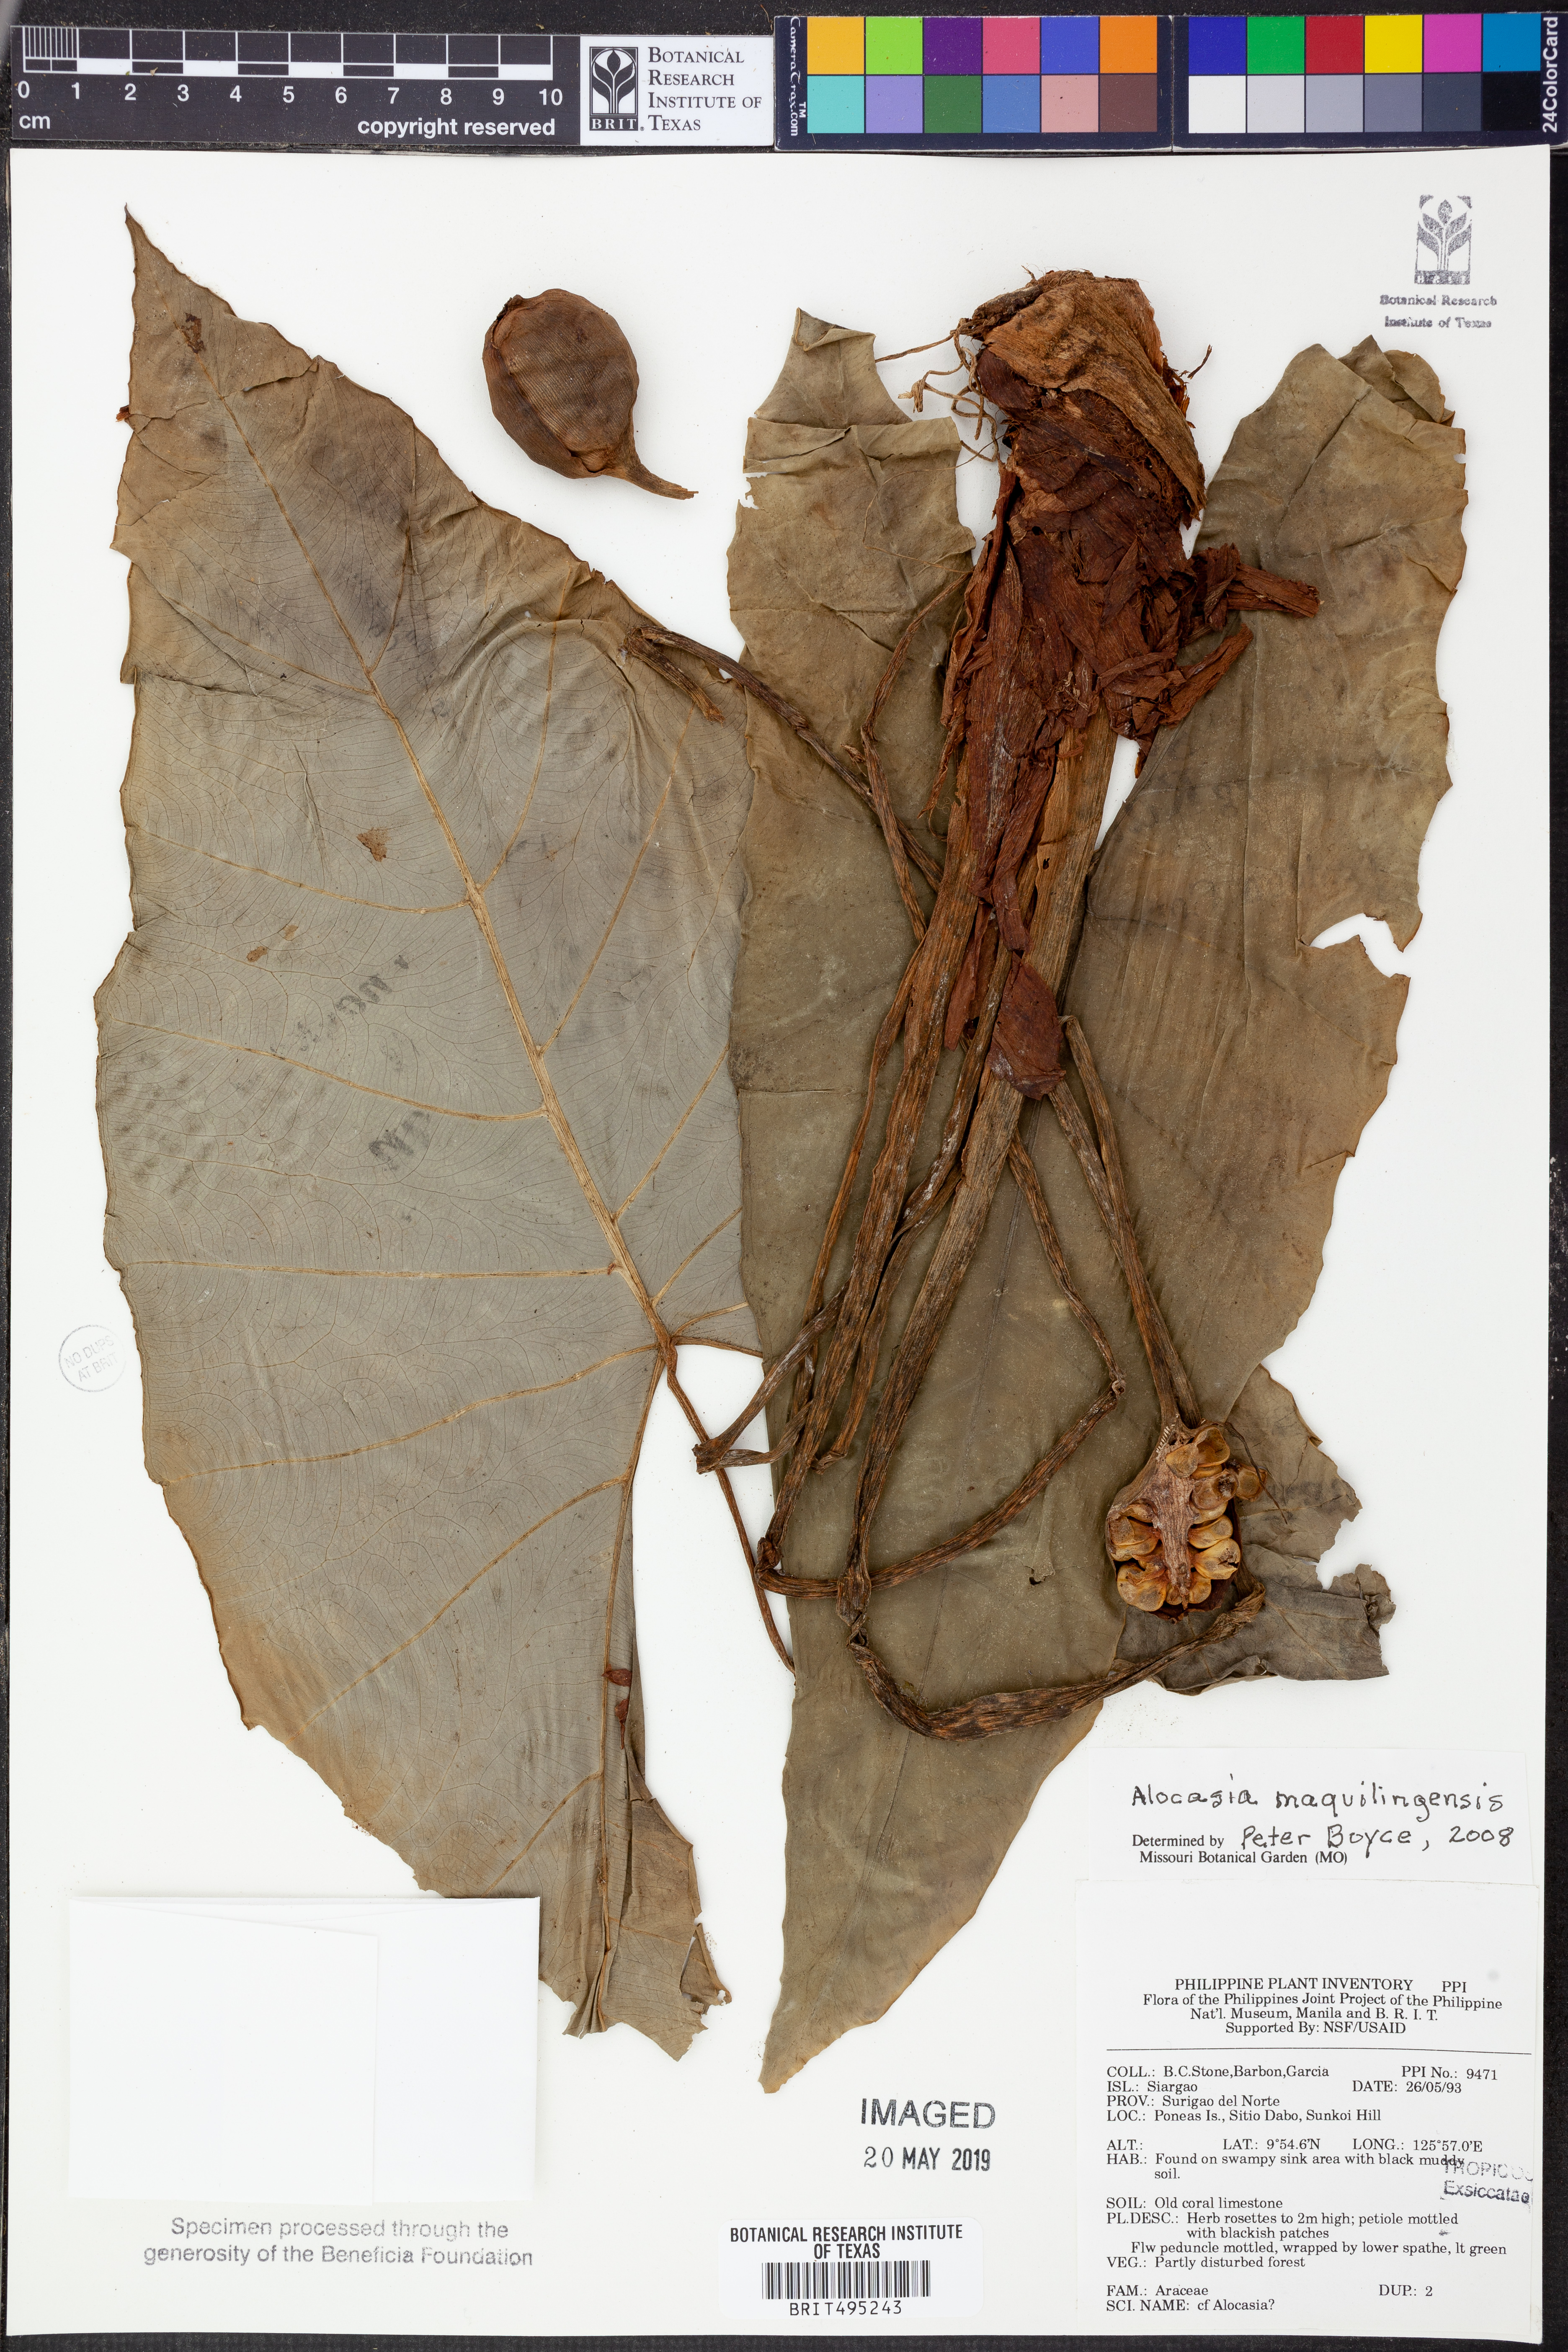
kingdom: Plantae
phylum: Tracheophyta
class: Liliopsida
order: Alismatales
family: Araceae
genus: Alocasia
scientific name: Alocasia maquilingensis
